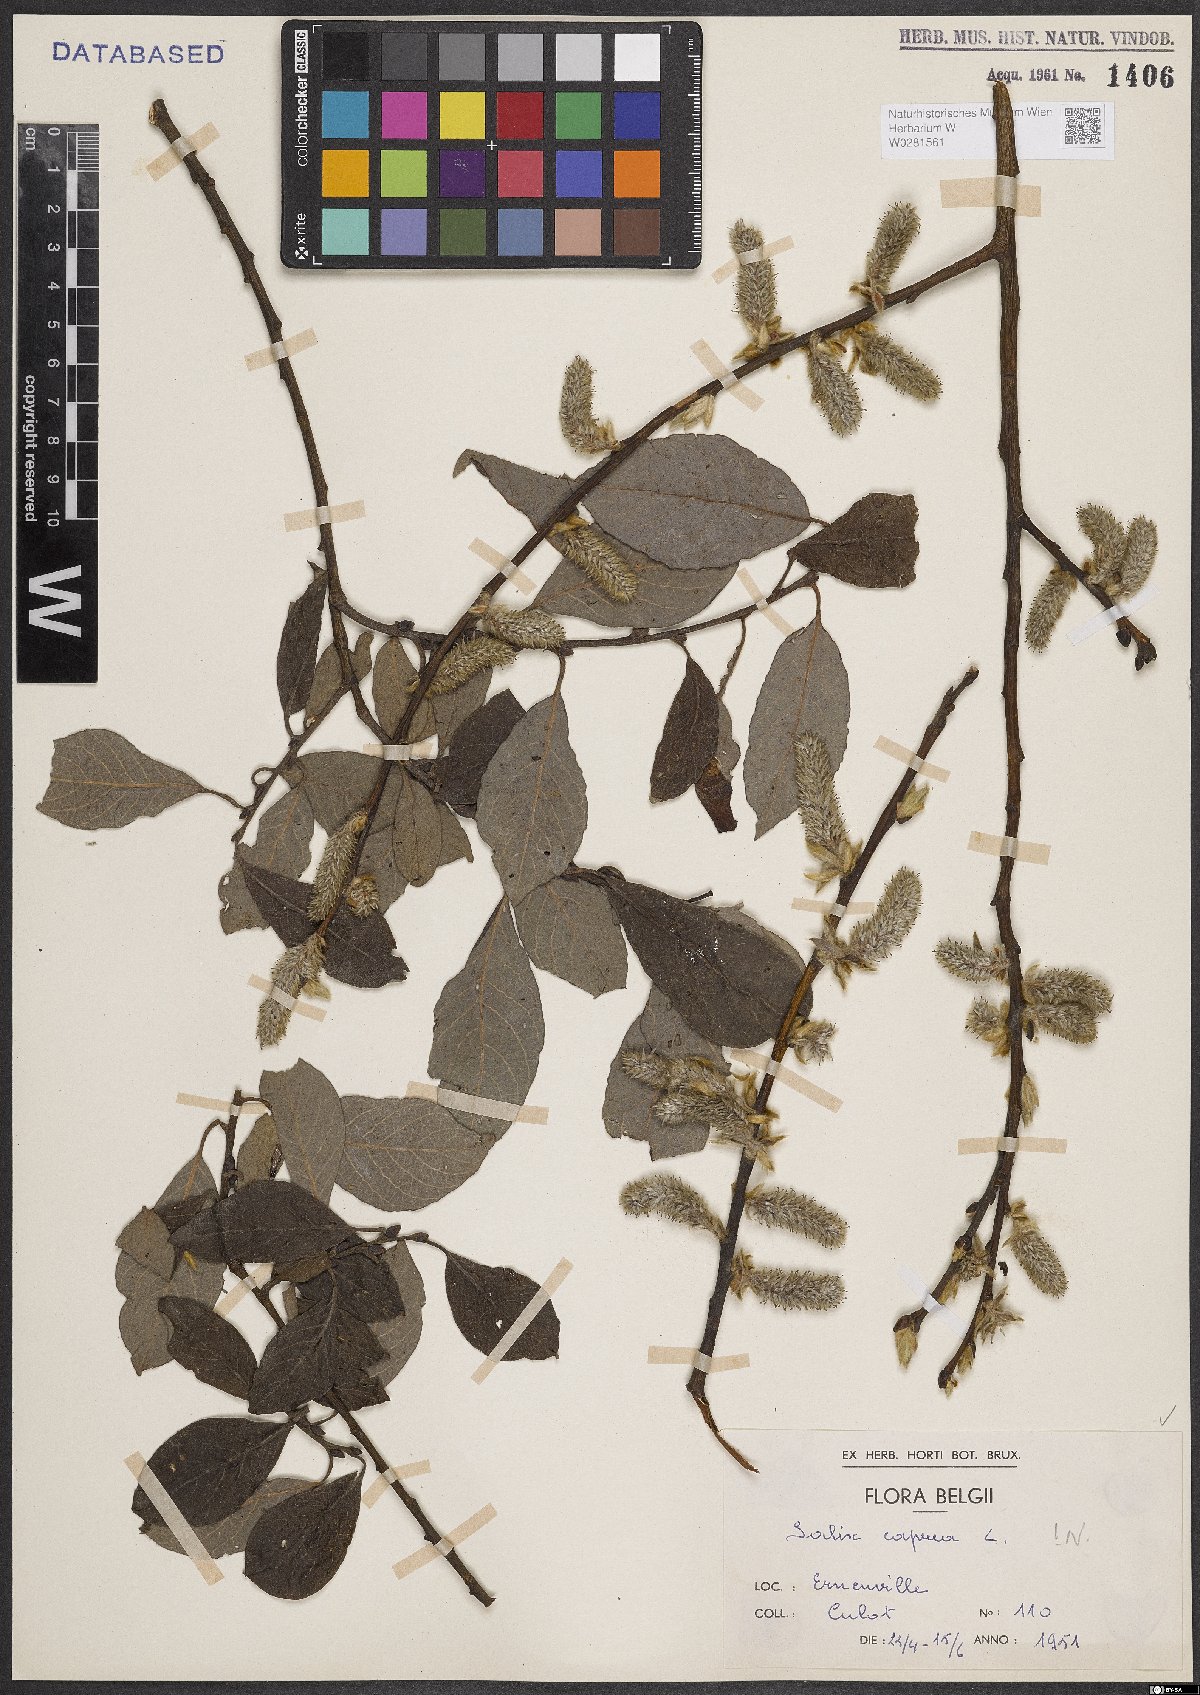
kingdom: Plantae
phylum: Tracheophyta
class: Magnoliopsida
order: Malpighiales
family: Salicaceae
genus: Salix
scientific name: Salix caprea
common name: Goat willow
